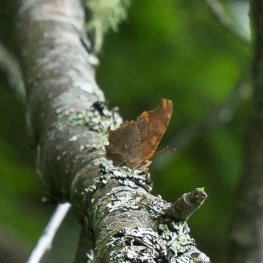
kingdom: Animalia
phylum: Arthropoda
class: Insecta
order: Lepidoptera
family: Nymphalidae
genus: Polygonia
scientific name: Polygonia interrogationis
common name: Question Mark
